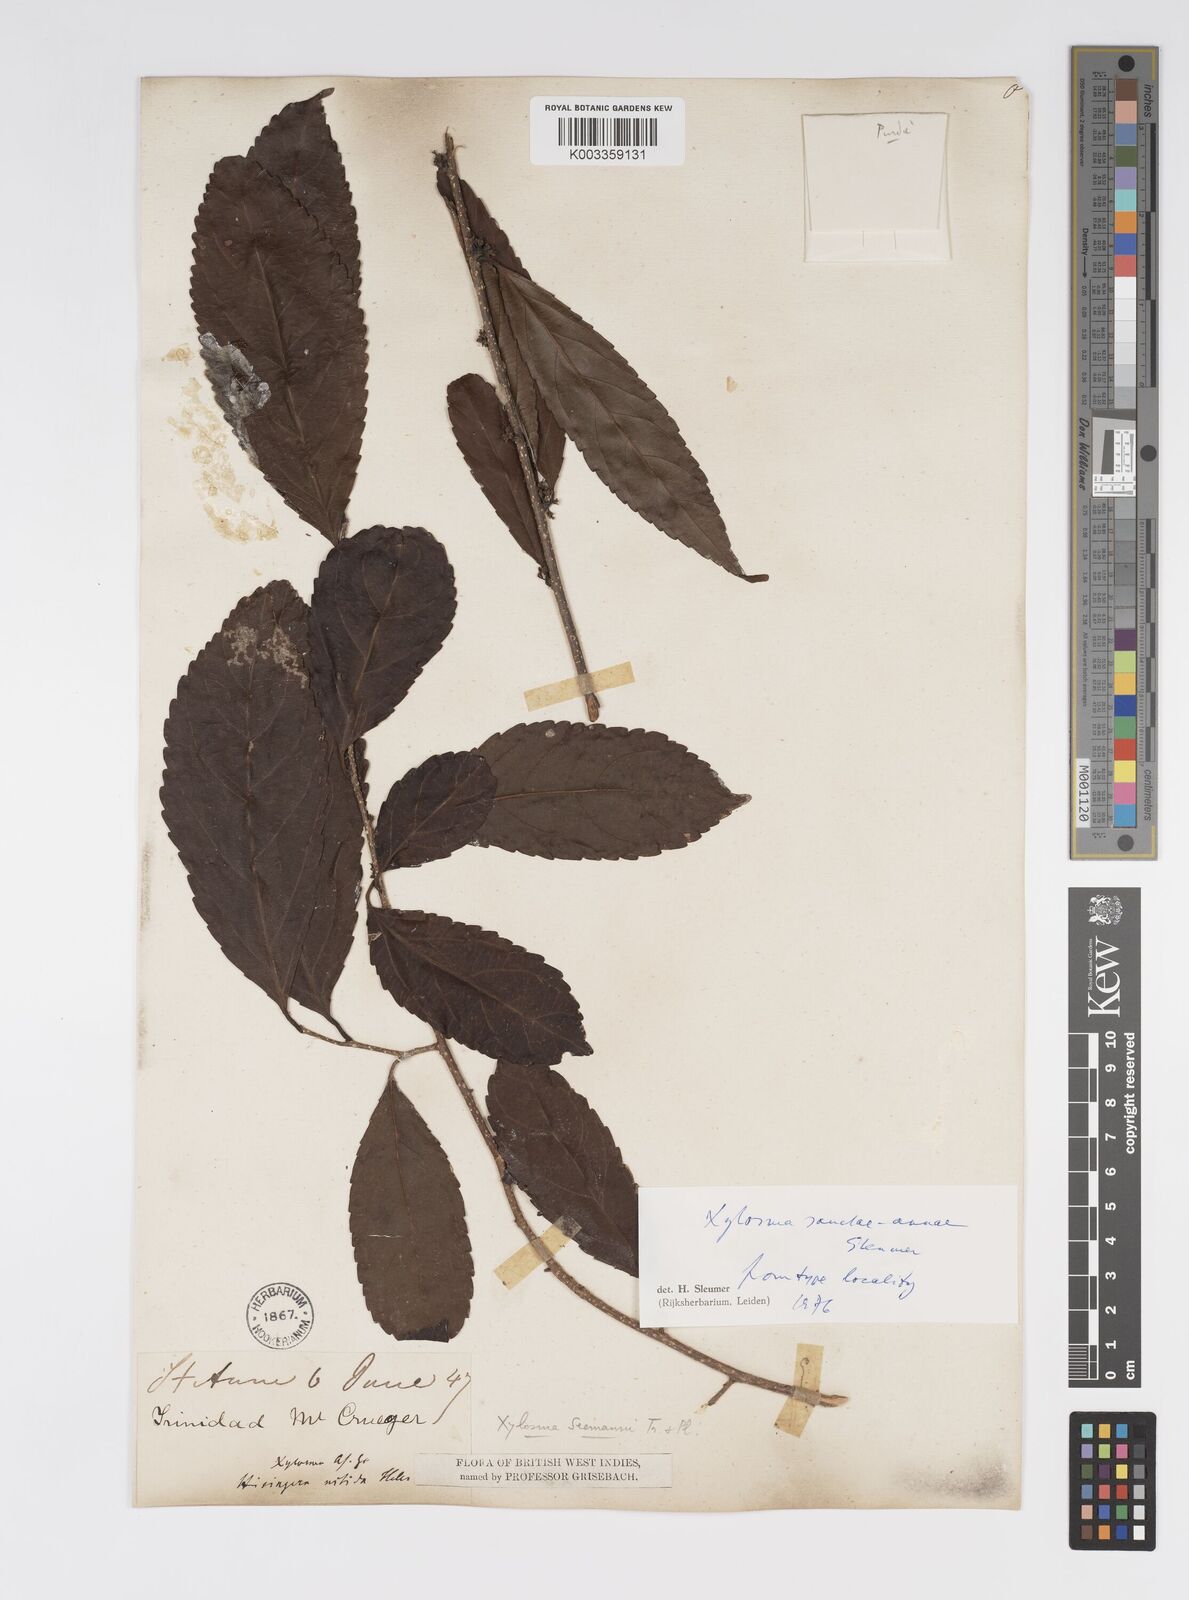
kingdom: Plantae
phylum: Tracheophyta
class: Magnoliopsida
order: Malpighiales
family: Salicaceae
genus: Xylosma
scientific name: Xylosma sanctae-annae
